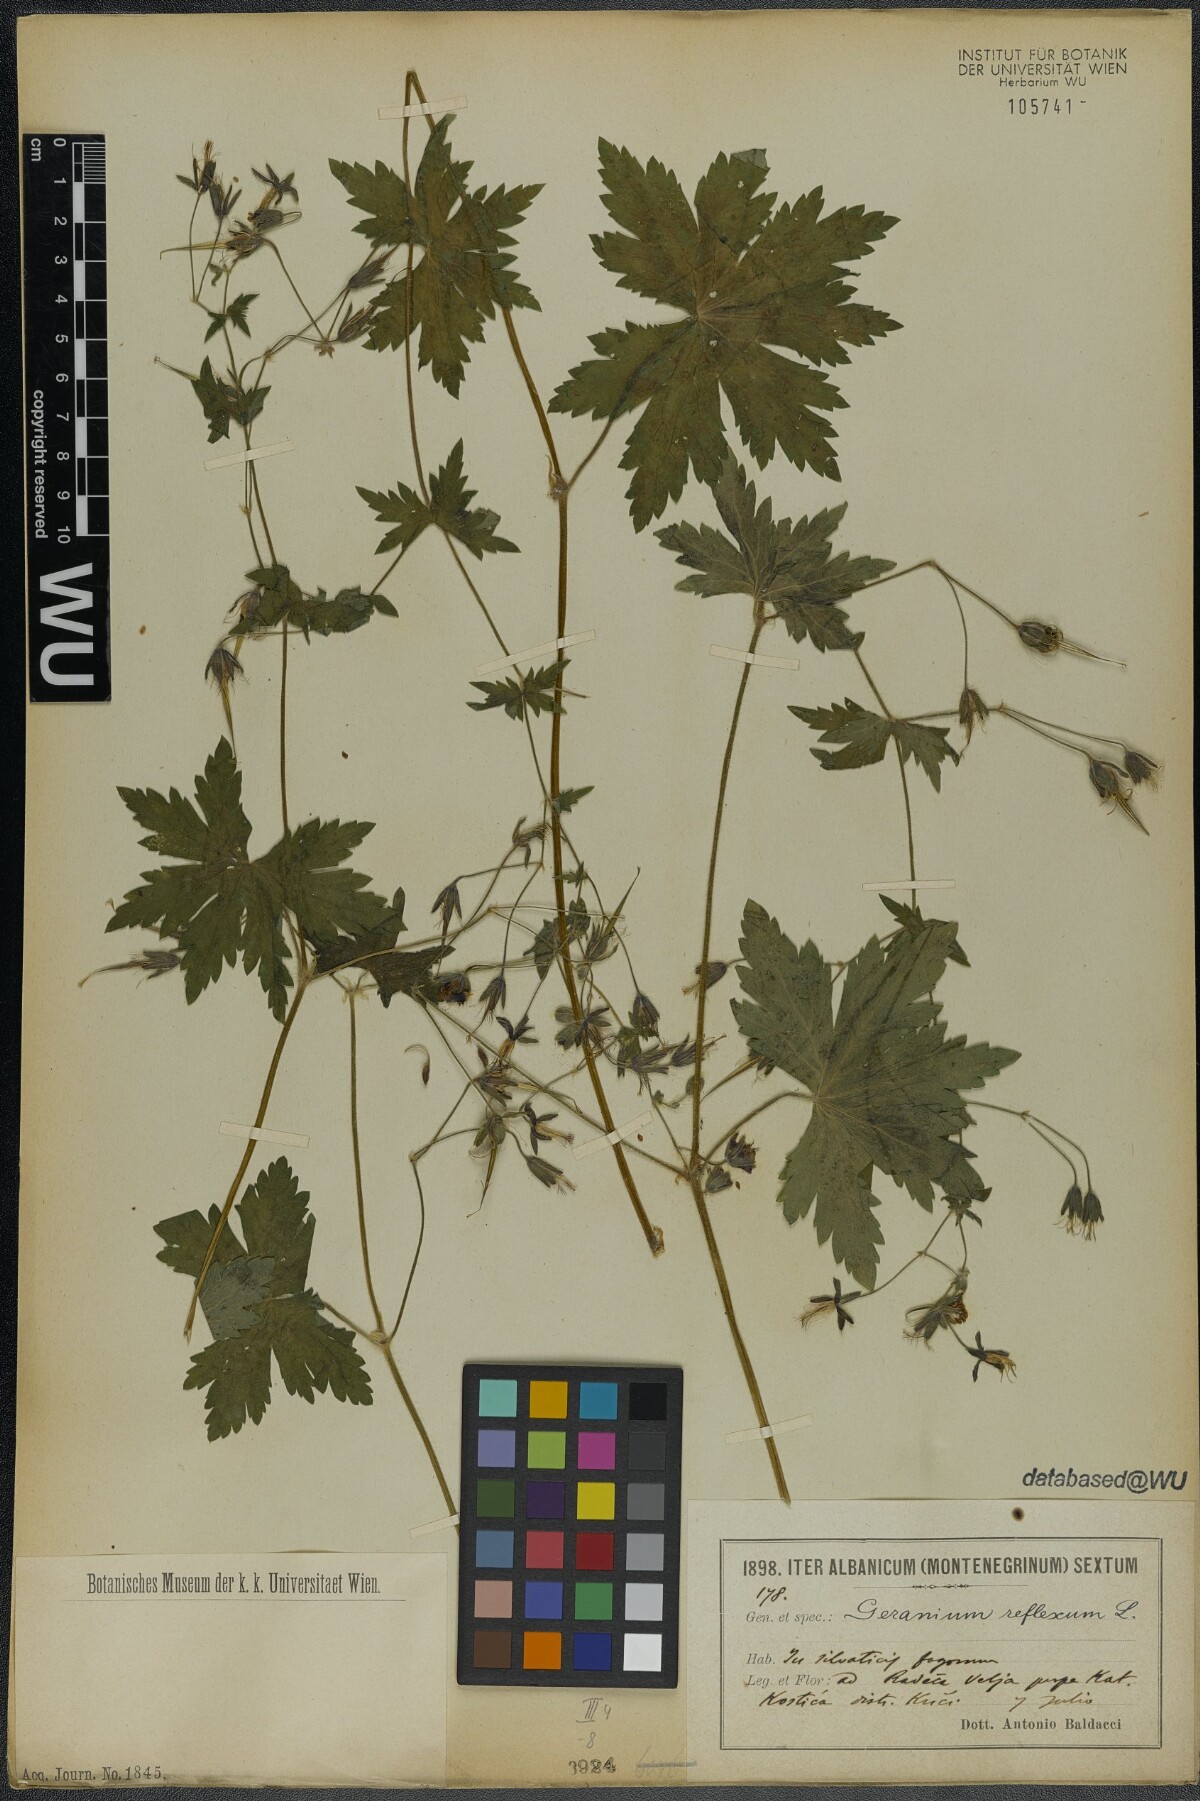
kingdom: Plantae
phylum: Tracheophyta
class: Magnoliopsida
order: Geraniales
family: Geraniaceae
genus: Geranium
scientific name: Geranium reflexum
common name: Reflexed crane's-bill
